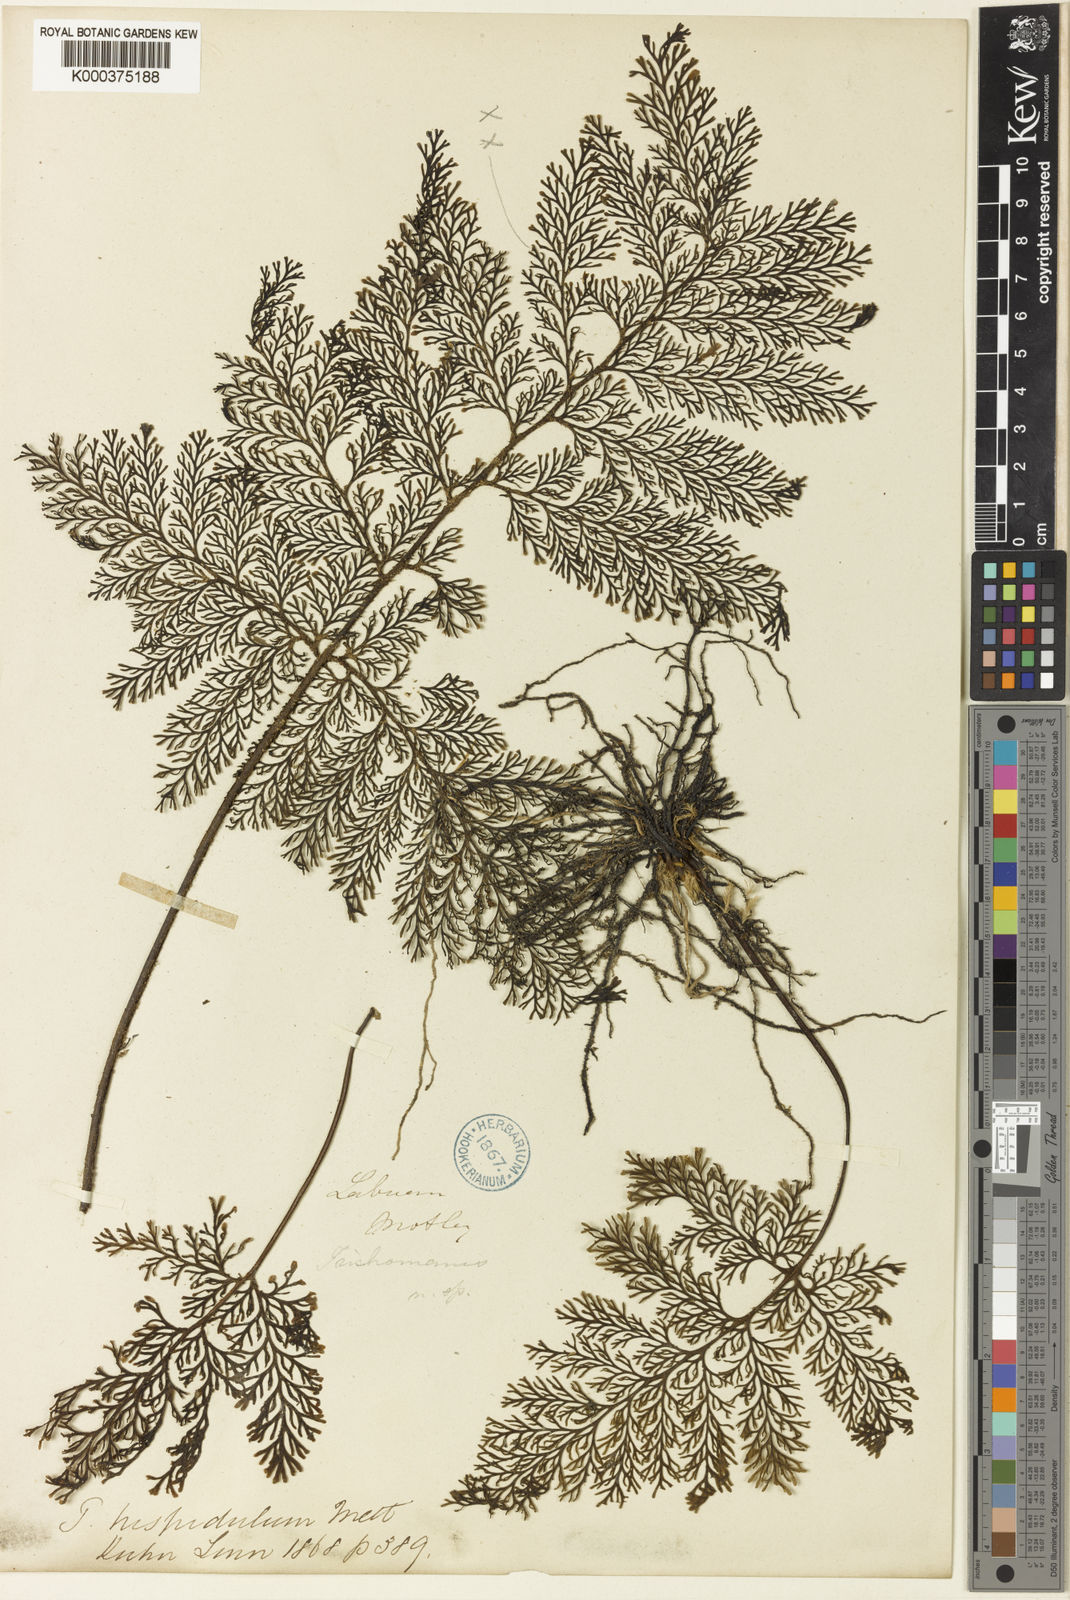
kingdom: Plantae
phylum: Tracheophyta
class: Polypodiopsida
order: Hymenophyllales
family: Hymenophyllaceae
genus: Trichomanes
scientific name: Trichomanes curranii
